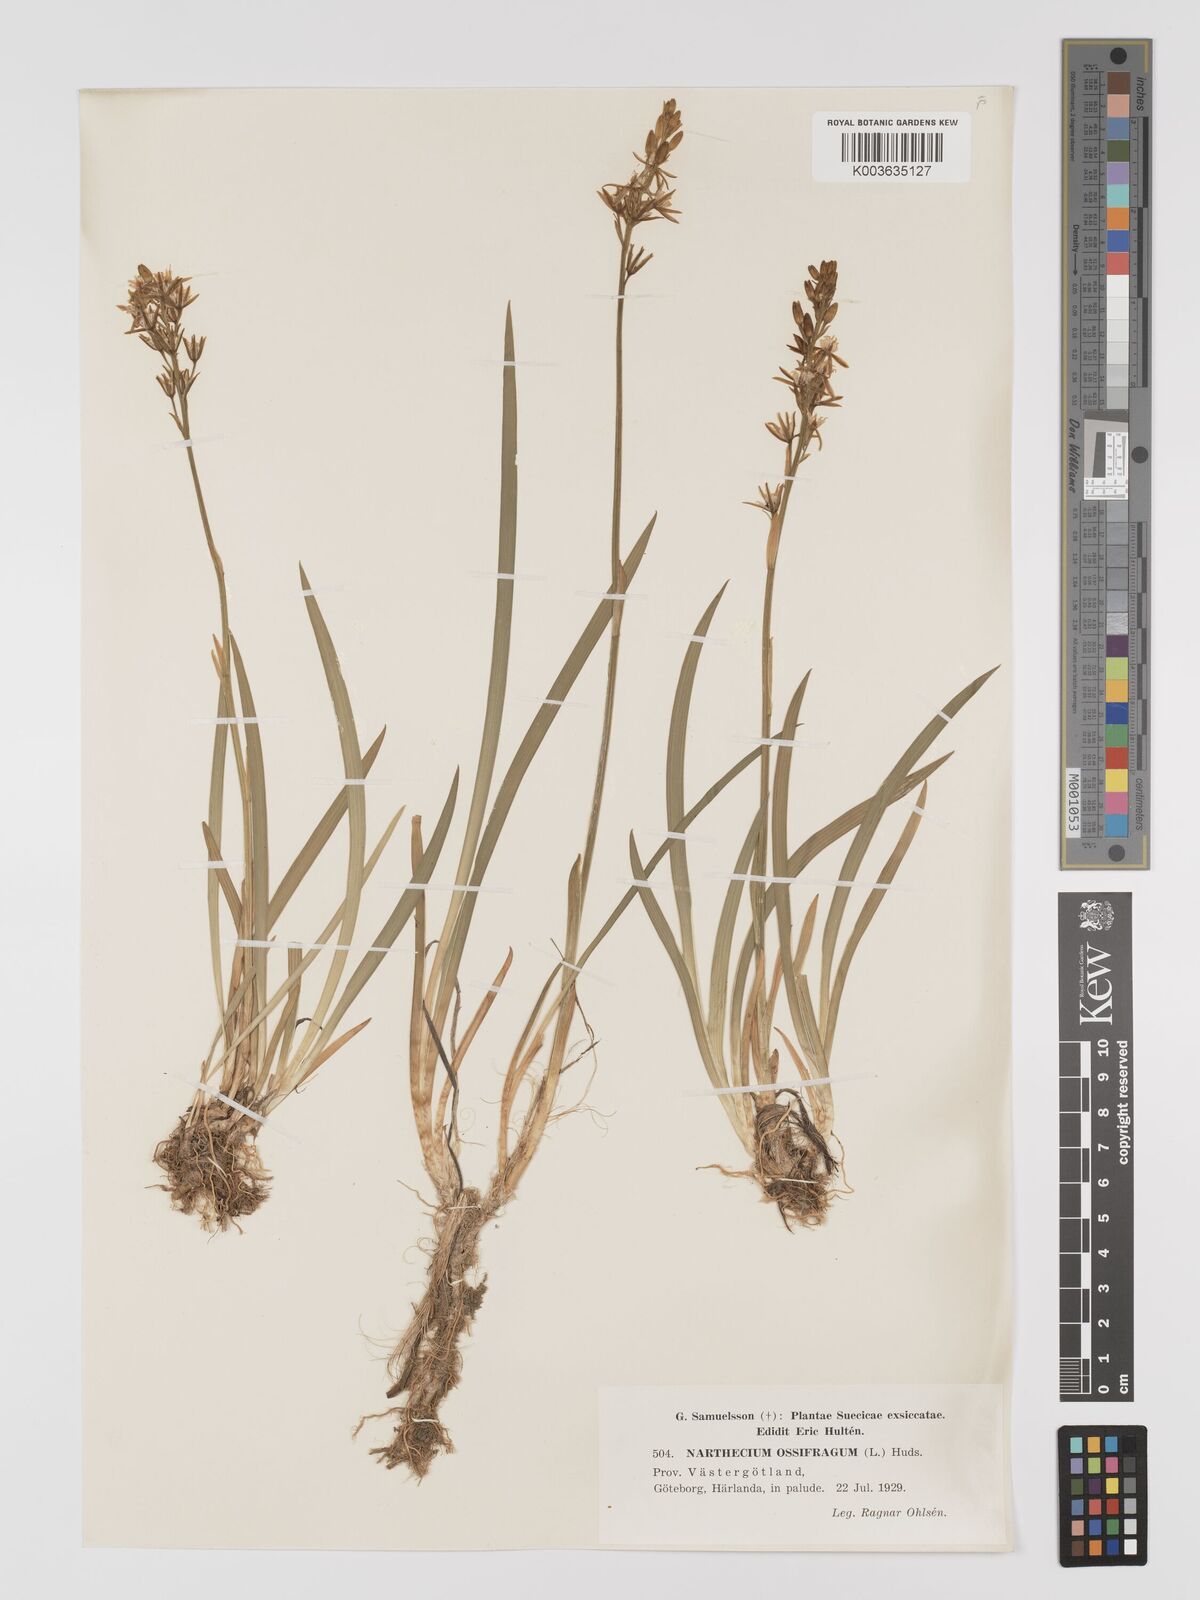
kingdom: Plantae
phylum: Tracheophyta
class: Liliopsida
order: Dioscoreales
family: Nartheciaceae
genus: Narthecium
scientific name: Narthecium ossifragum
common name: Bog asphodel
